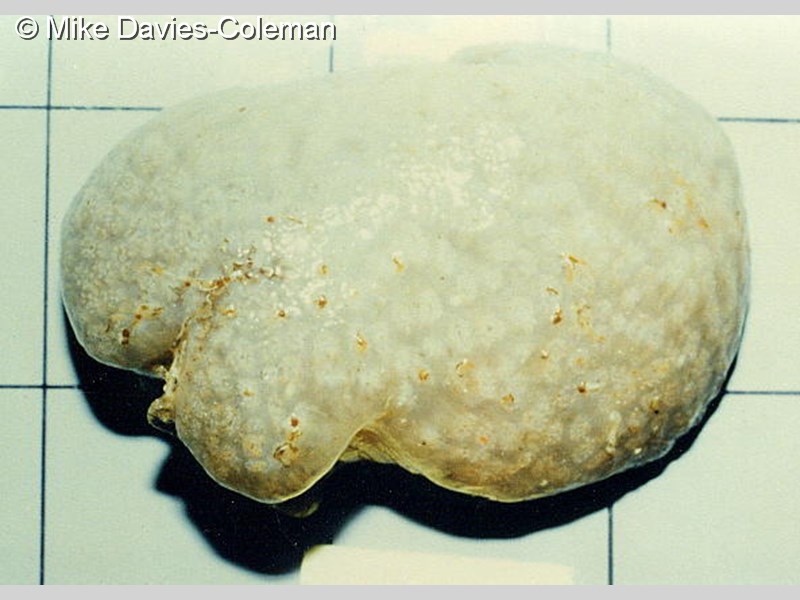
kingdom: Animalia
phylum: Chordata
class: Ascidiacea
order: Aplousobranchia
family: Polyclinidae
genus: Polyclinum
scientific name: Polyclinum
